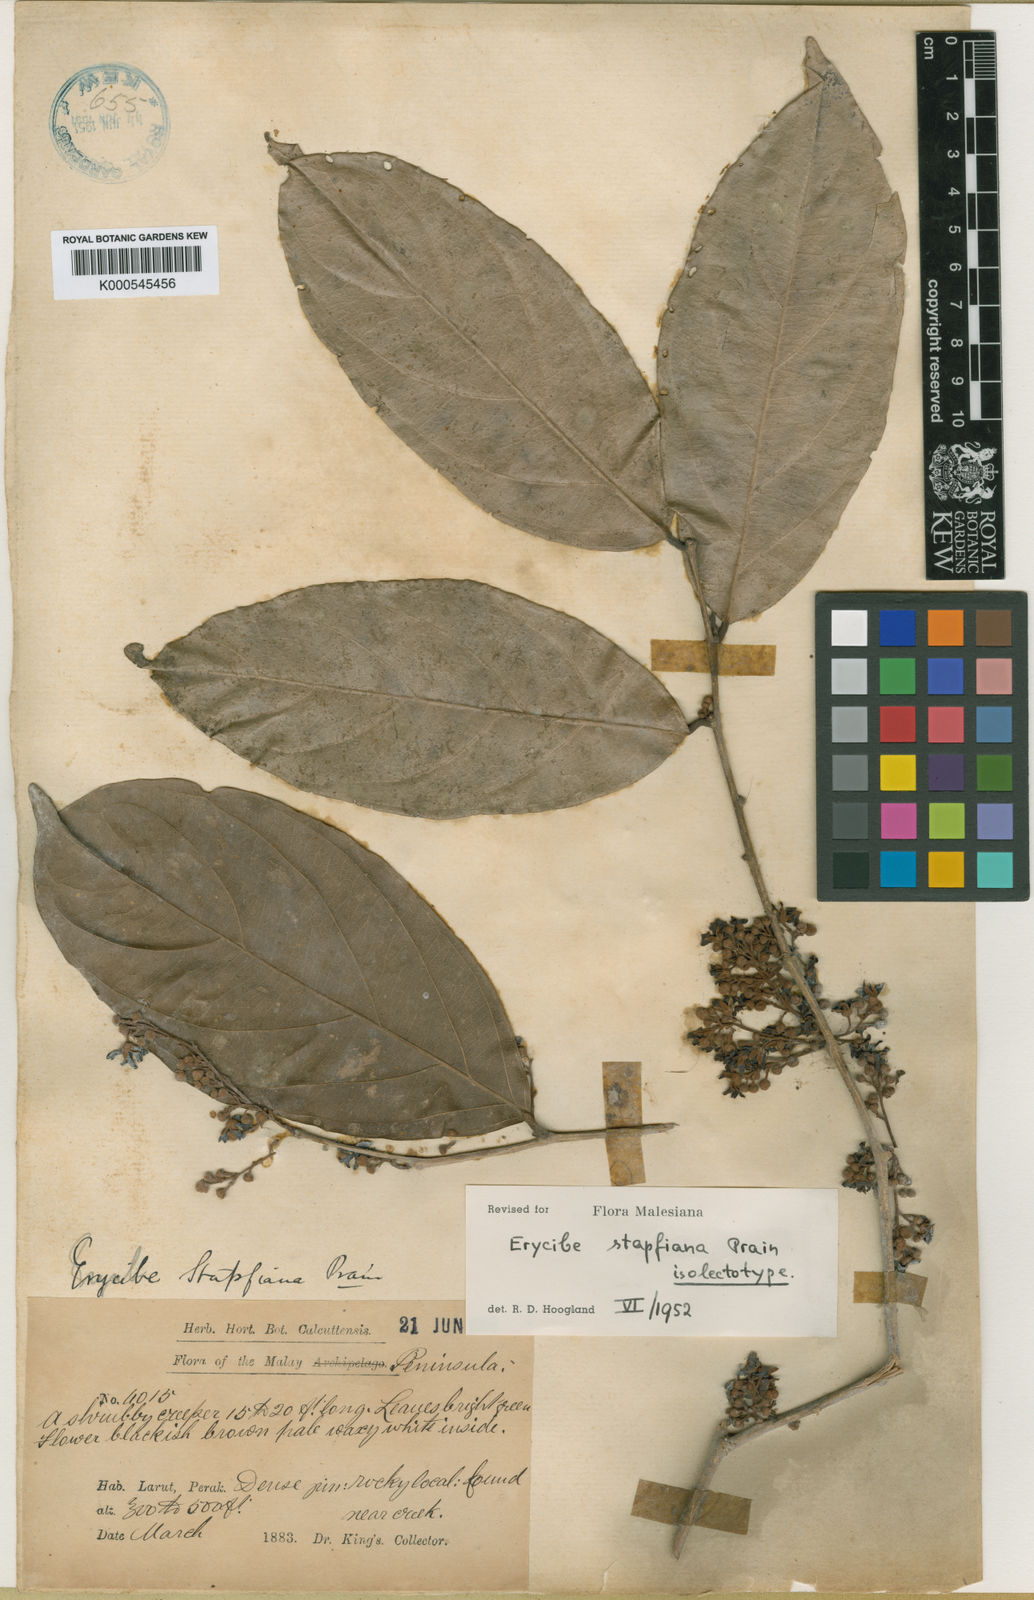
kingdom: Plantae
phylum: Tracheophyta
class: Magnoliopsida
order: Solanales
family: Convolvulaceae
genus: Erycibe
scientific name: Erycibe stapfiana
